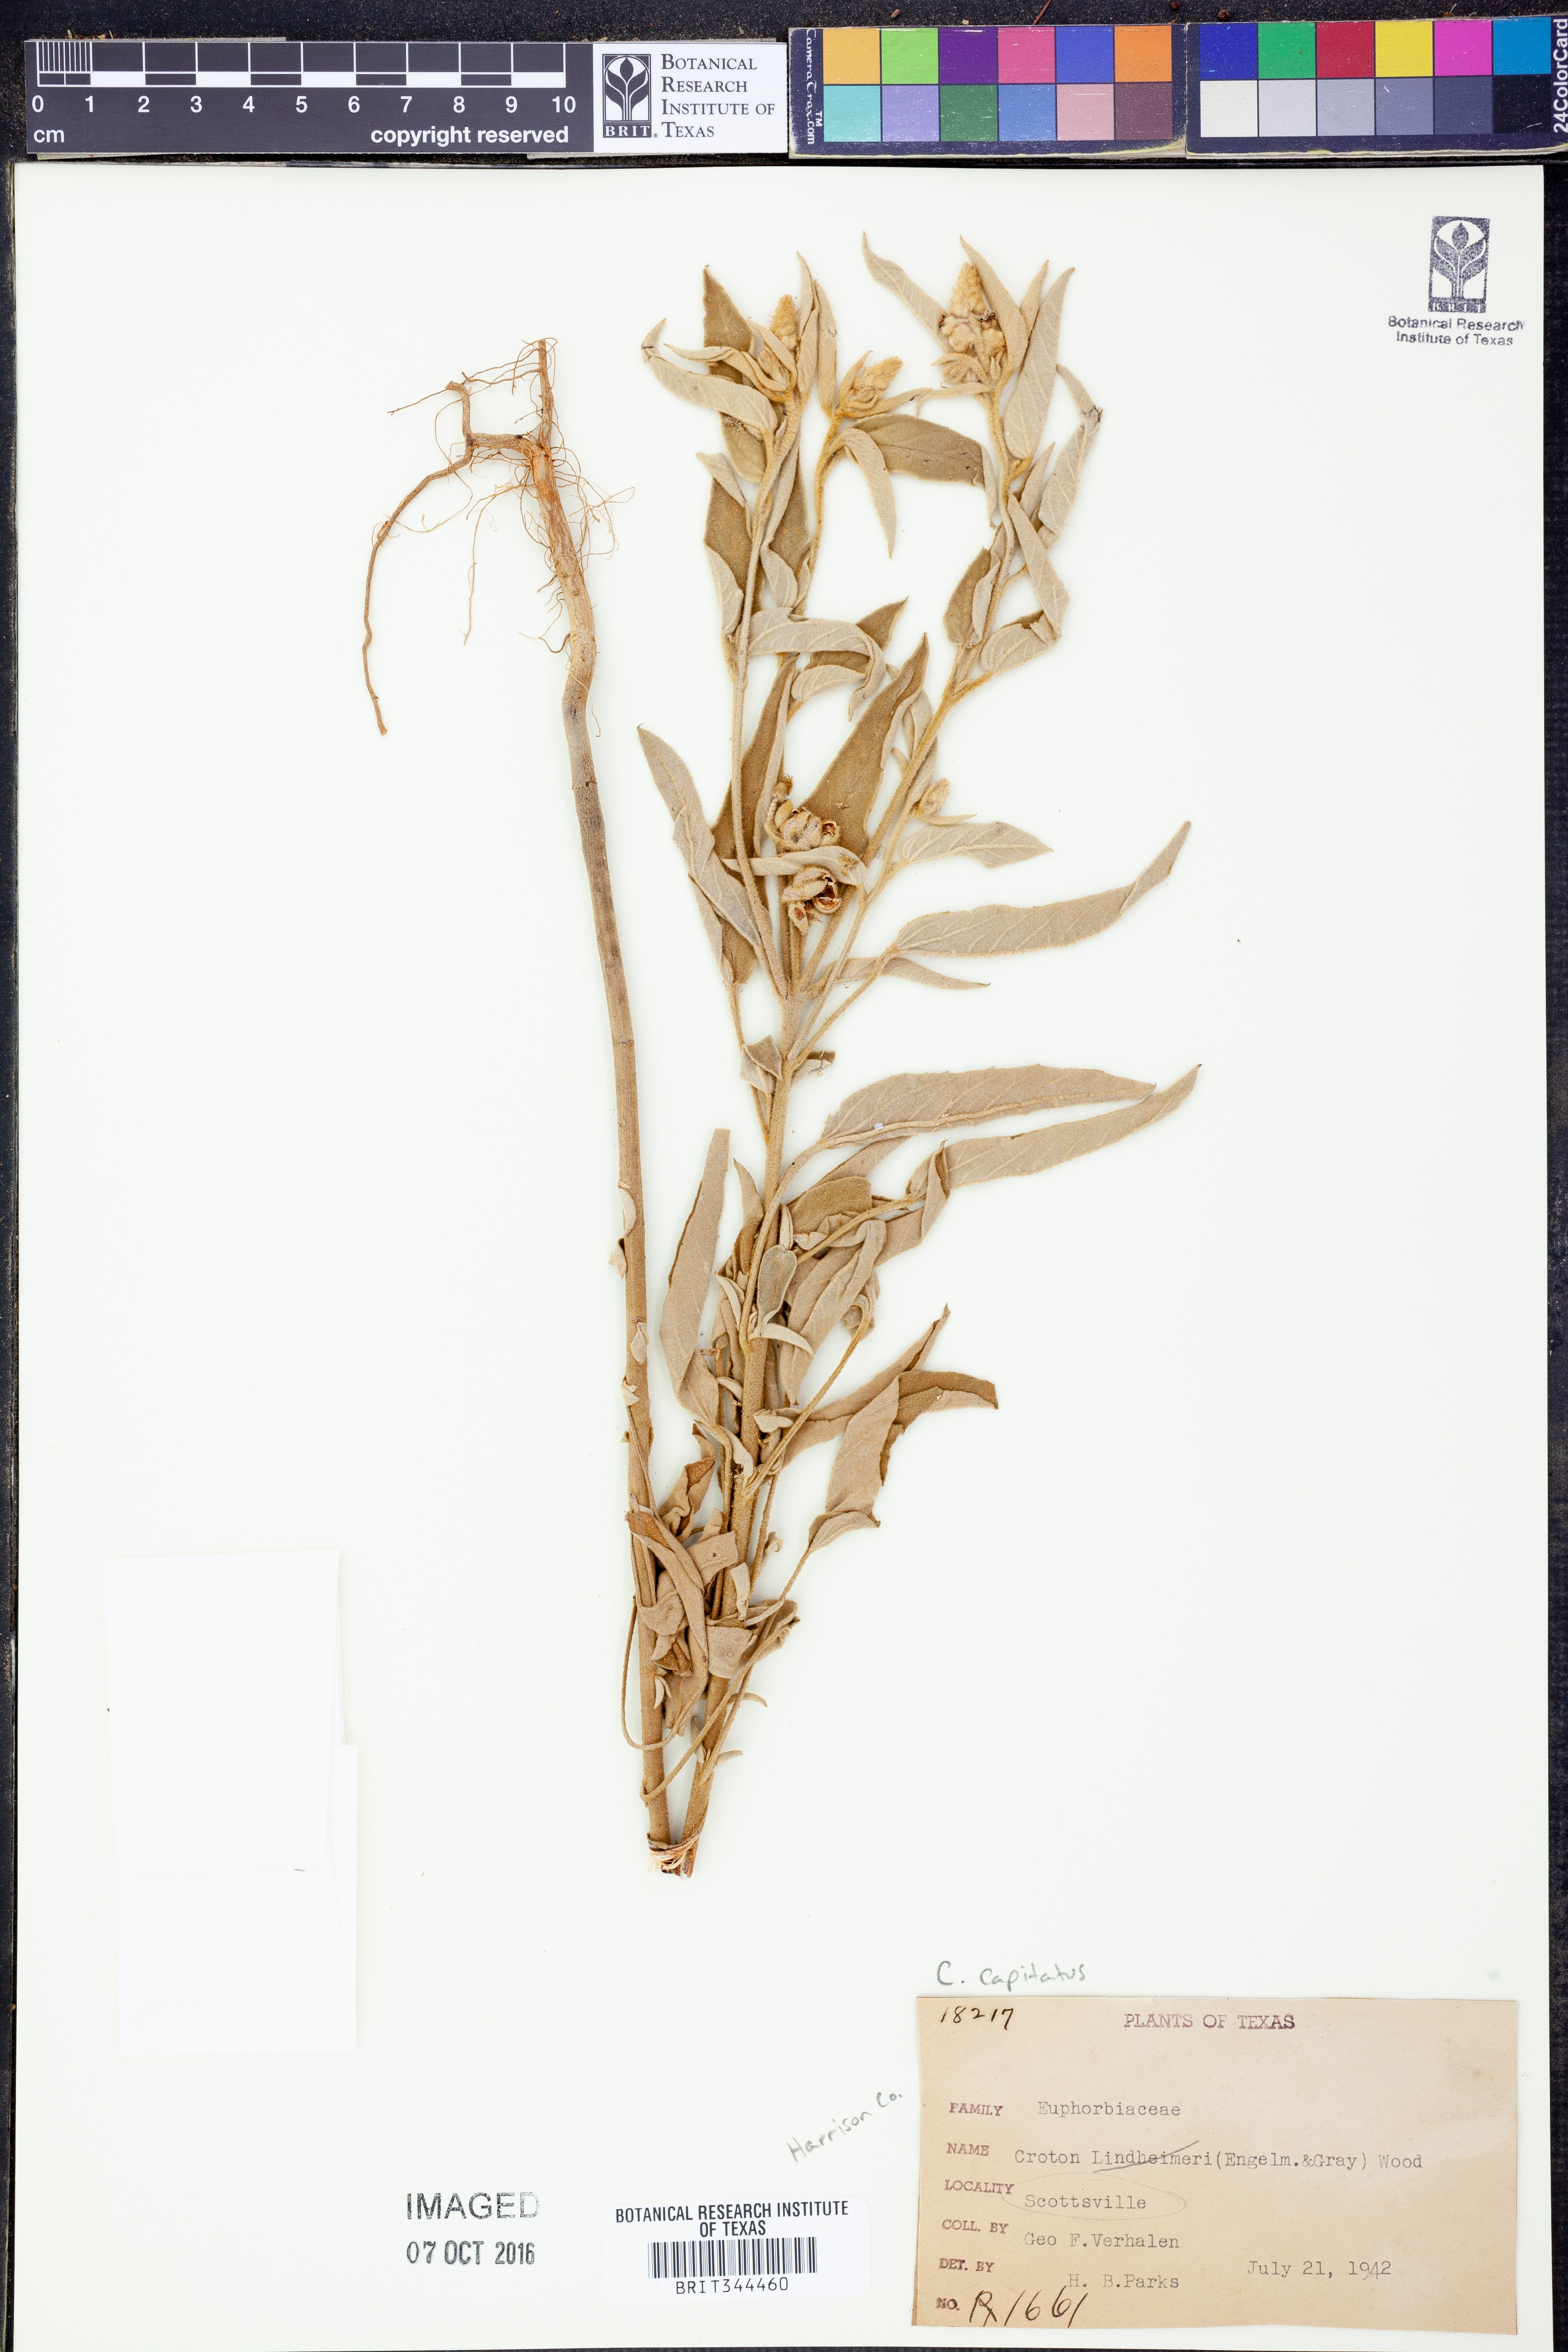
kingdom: Plantae
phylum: Tracheophyta
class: Magnoliopsida
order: Malpighiales
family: Euphorbiaceae
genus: Croton
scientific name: Croton capitatus
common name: Woolly croton
